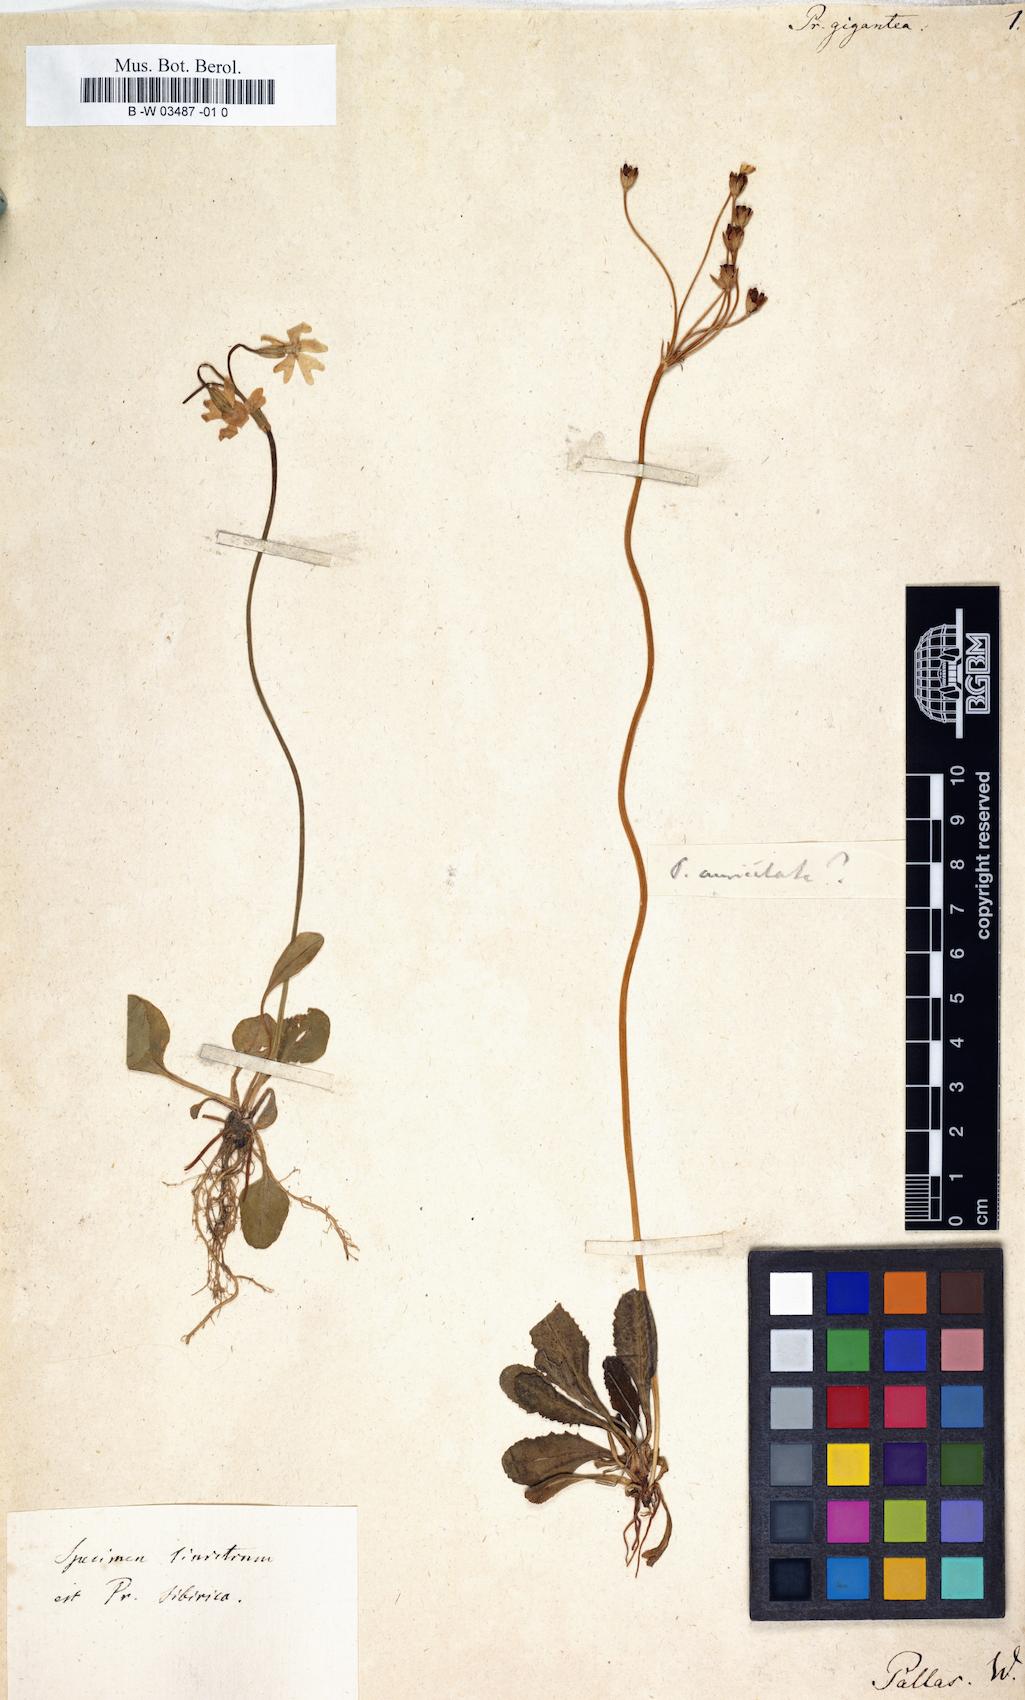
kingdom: Plantae
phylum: Tracheophyta
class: Magnoliopsida
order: Ericales
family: Primulaceae
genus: Primula
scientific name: Primula
